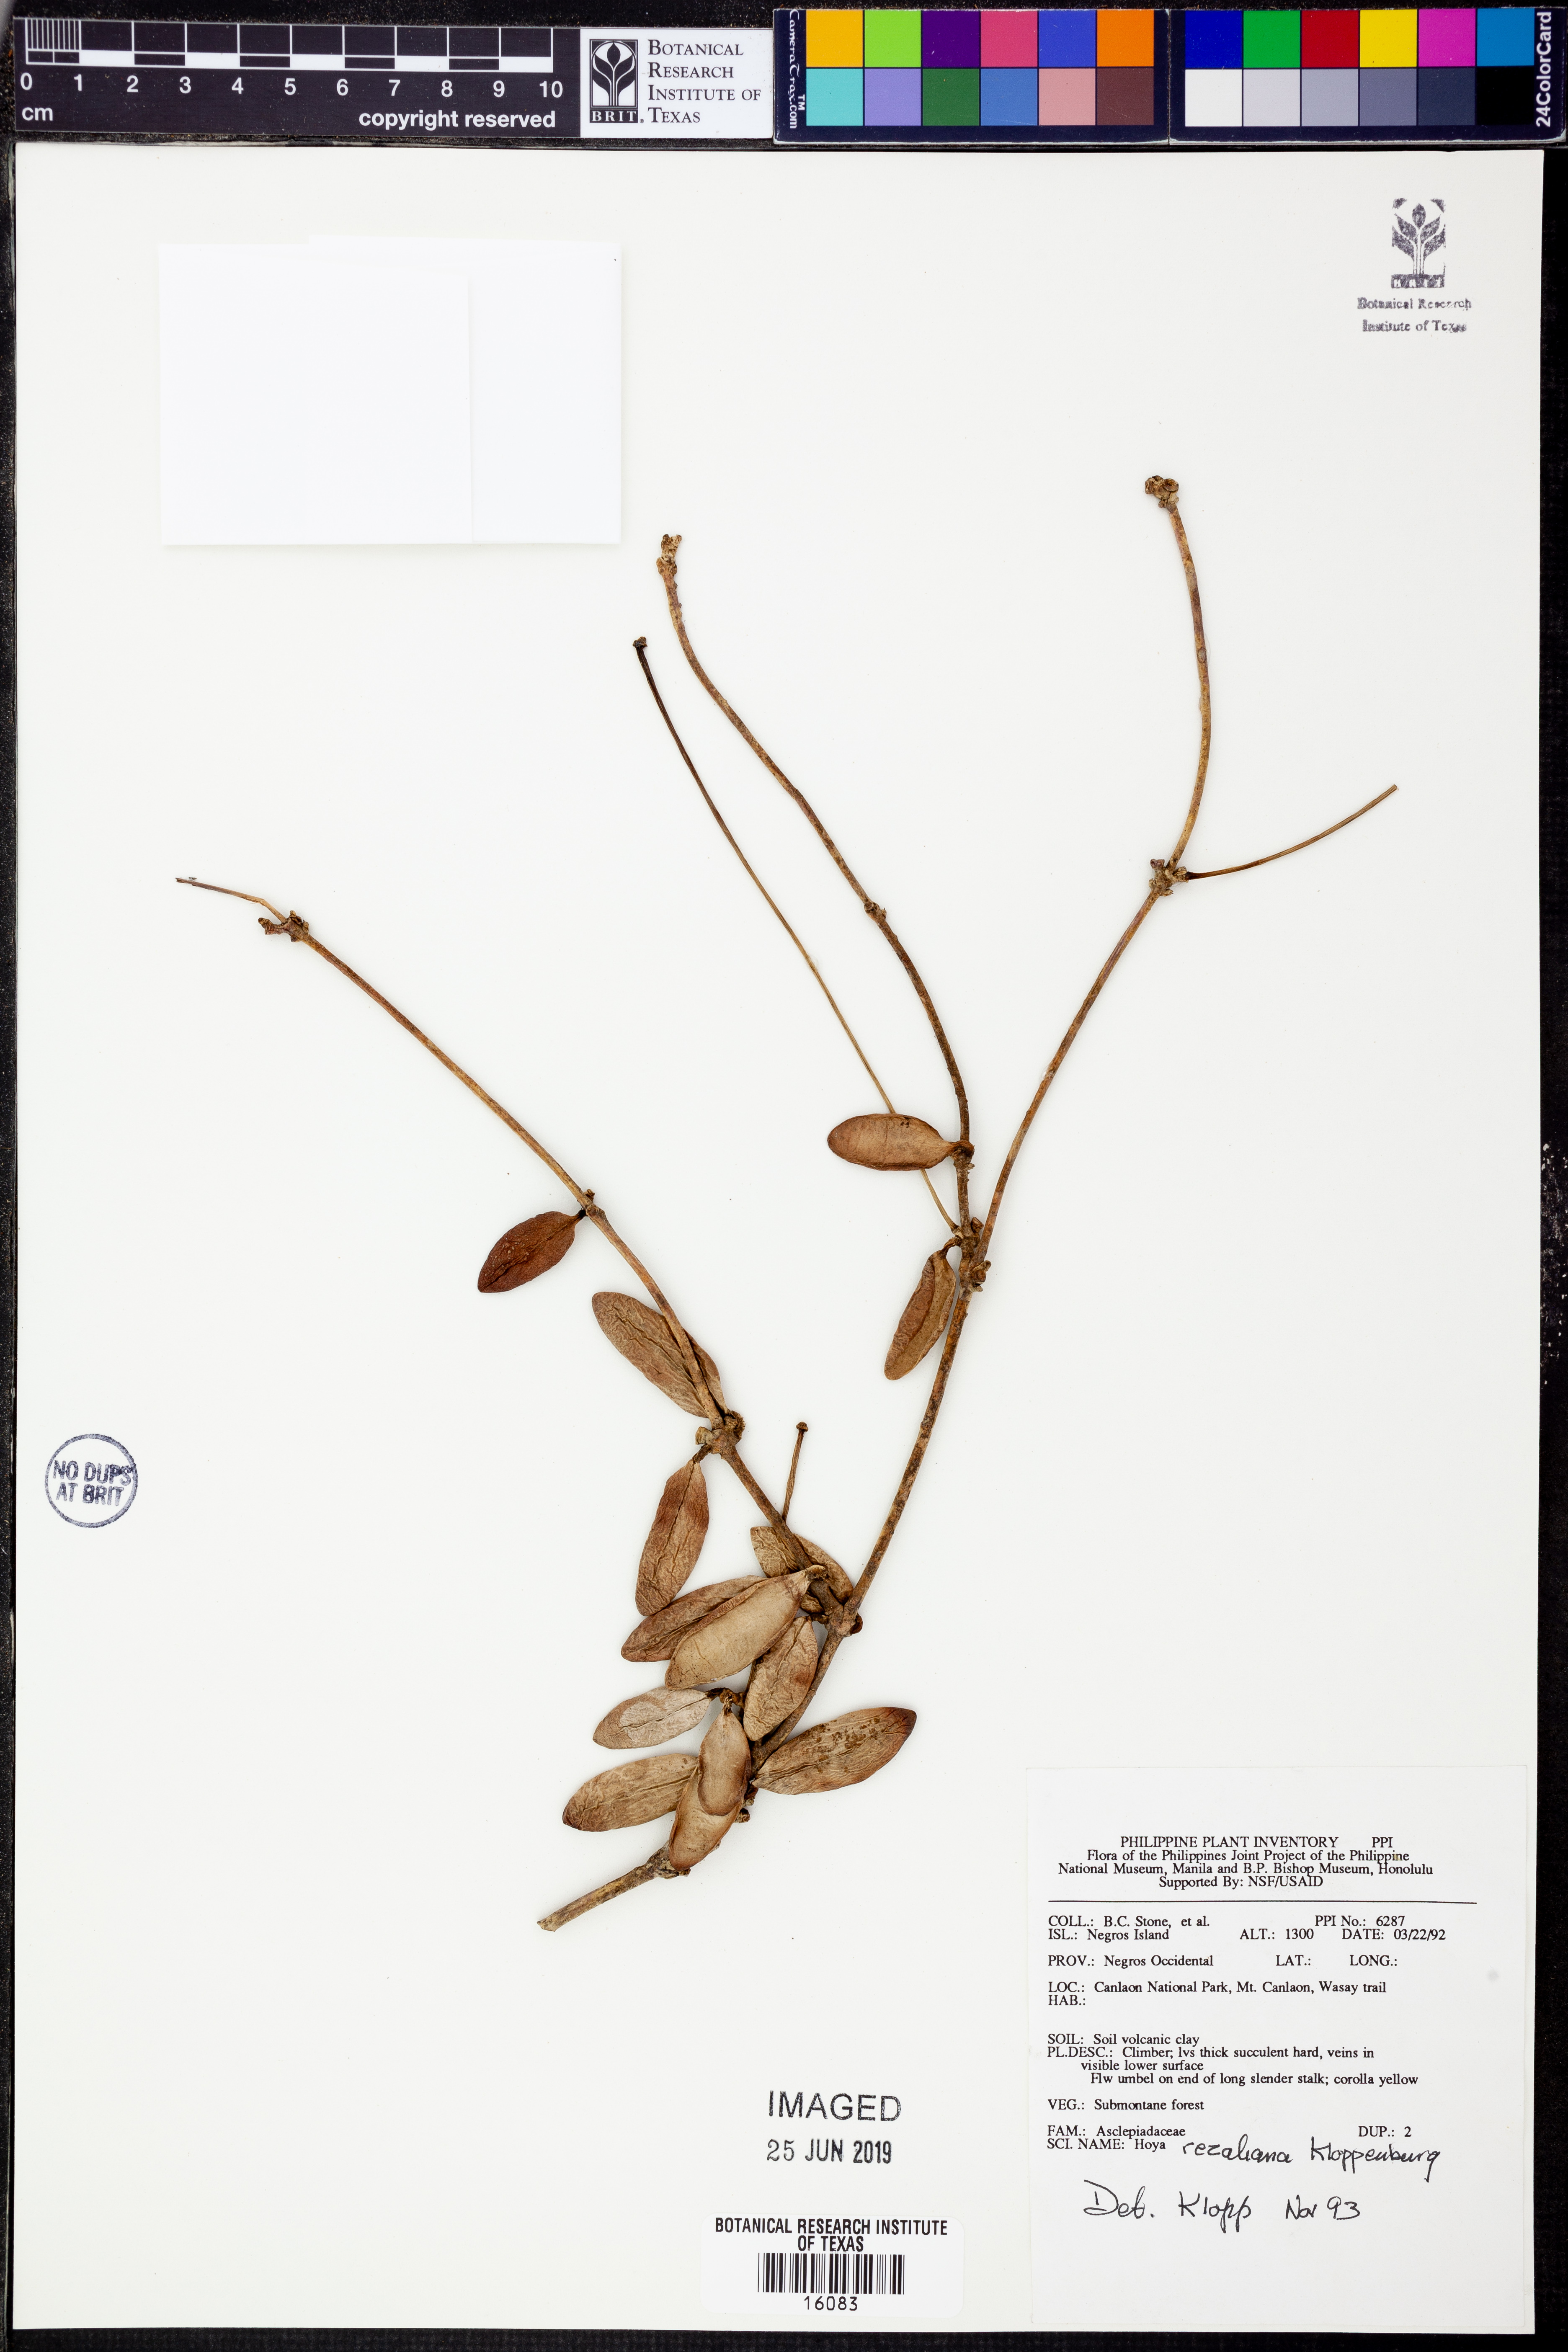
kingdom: Plantae
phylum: Tracheophyta
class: Magnoliopsida
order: Gentianales
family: Apocynaceae
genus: Hoya
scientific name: Hoya rizaliana
